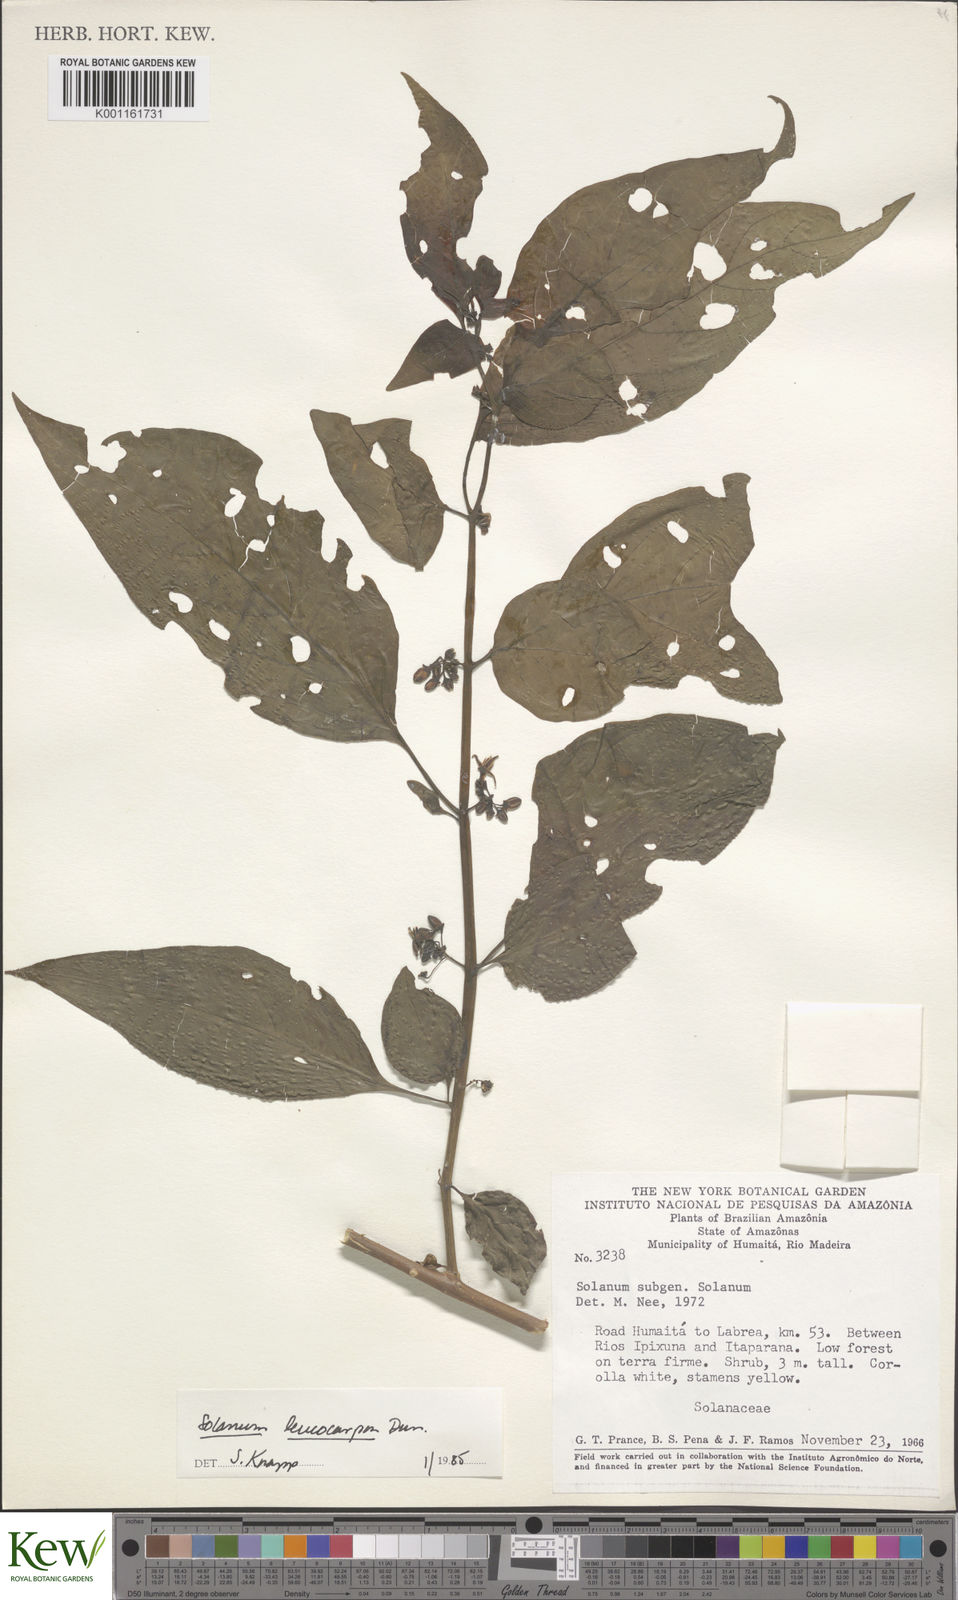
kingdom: Plantae
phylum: Tracheophyta
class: Magnoliopsida
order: Solanales
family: Solanaceae
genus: Solanum
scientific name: Solanum leucocarpon
